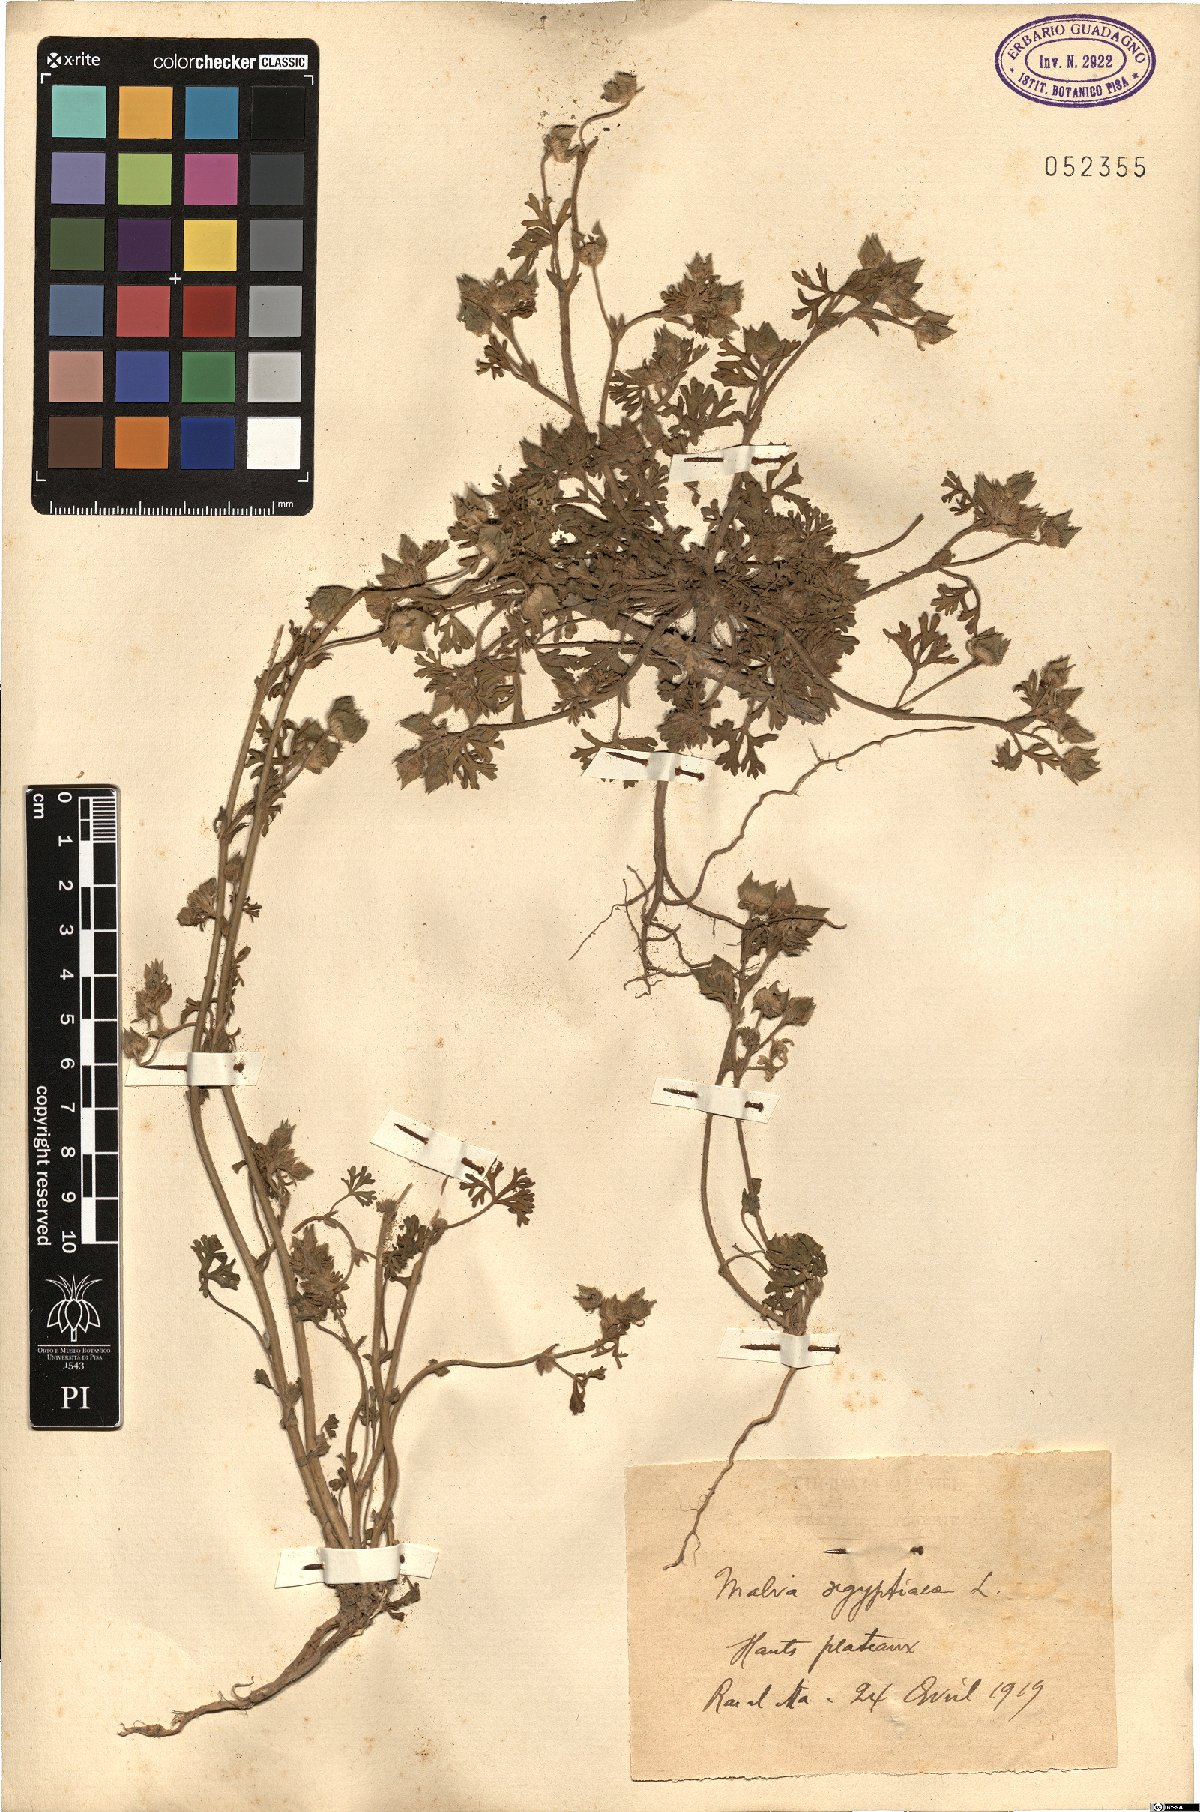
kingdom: Plantae
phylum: Tracheophyta
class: Magnoliopsida
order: Malvales
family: Malvaceae
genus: Malva
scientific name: Malva aegyptia
